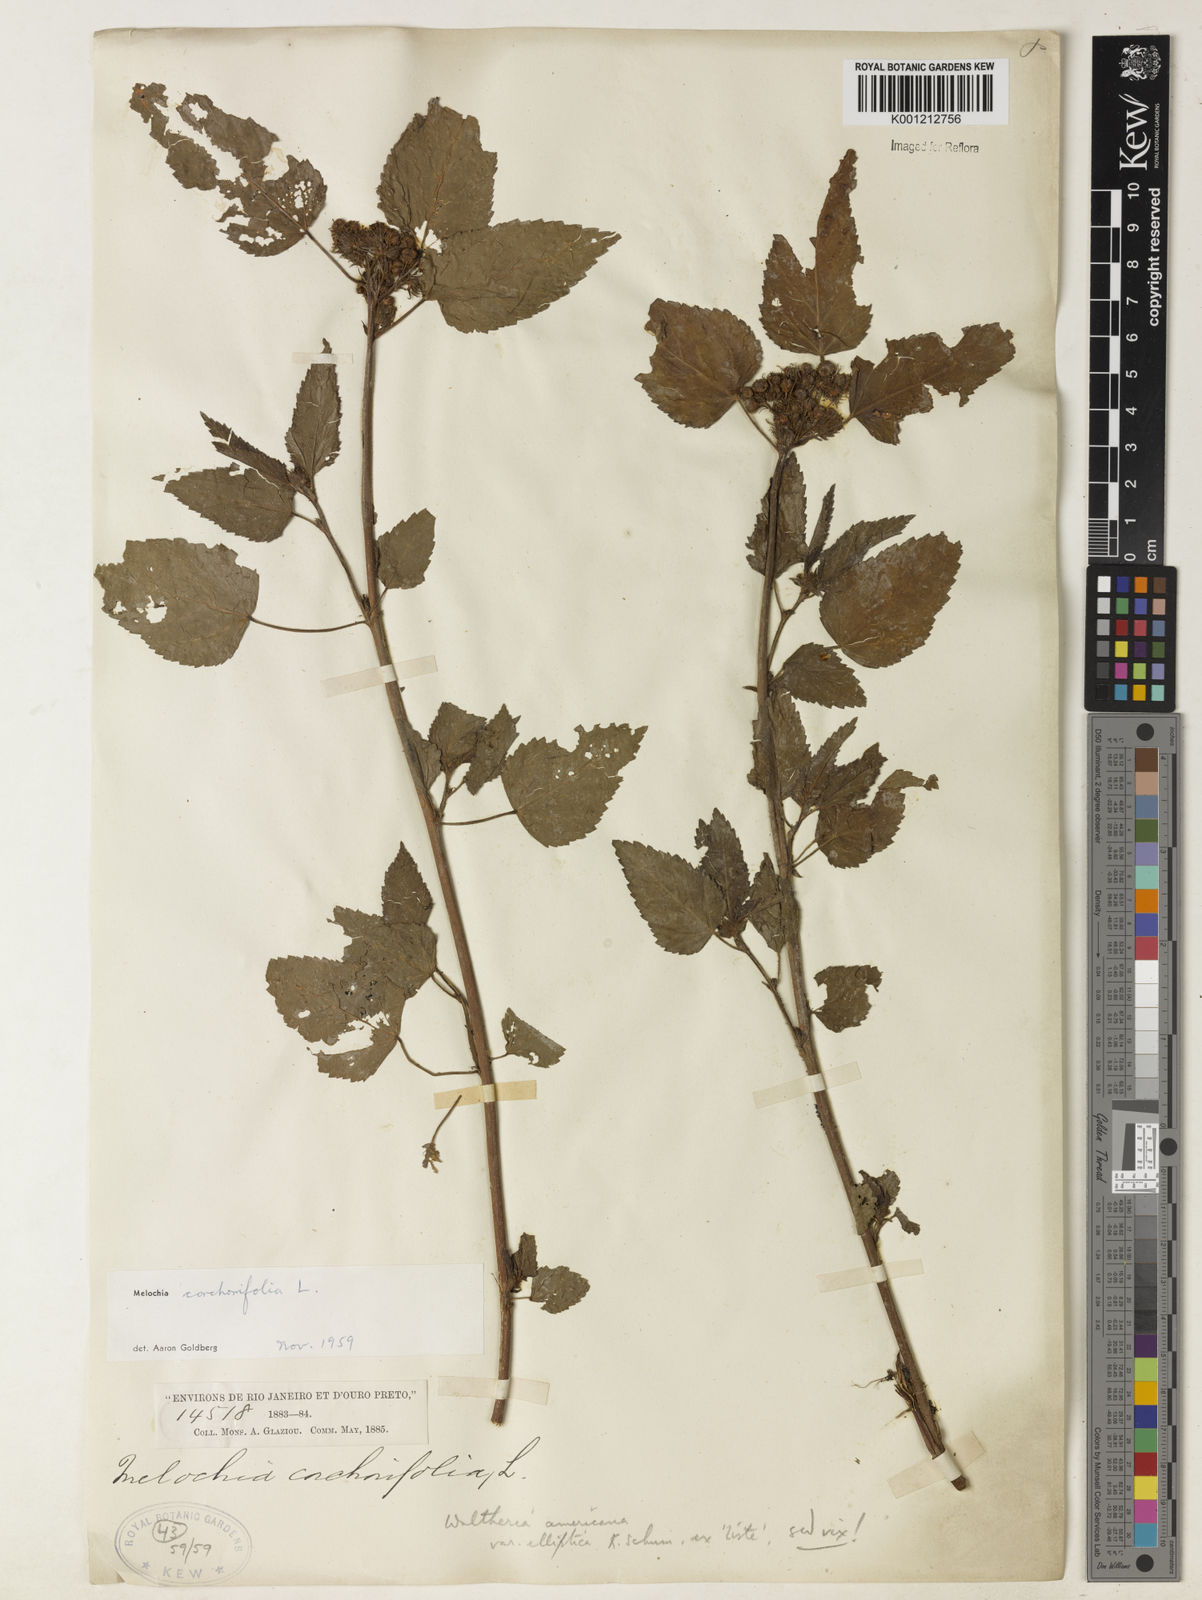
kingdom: Plantae
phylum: Tracheophyta
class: Magnoliopsida
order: Malvales
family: Malvaceae
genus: Melochia
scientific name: Melochia corchorifolia
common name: Chocolateweed
